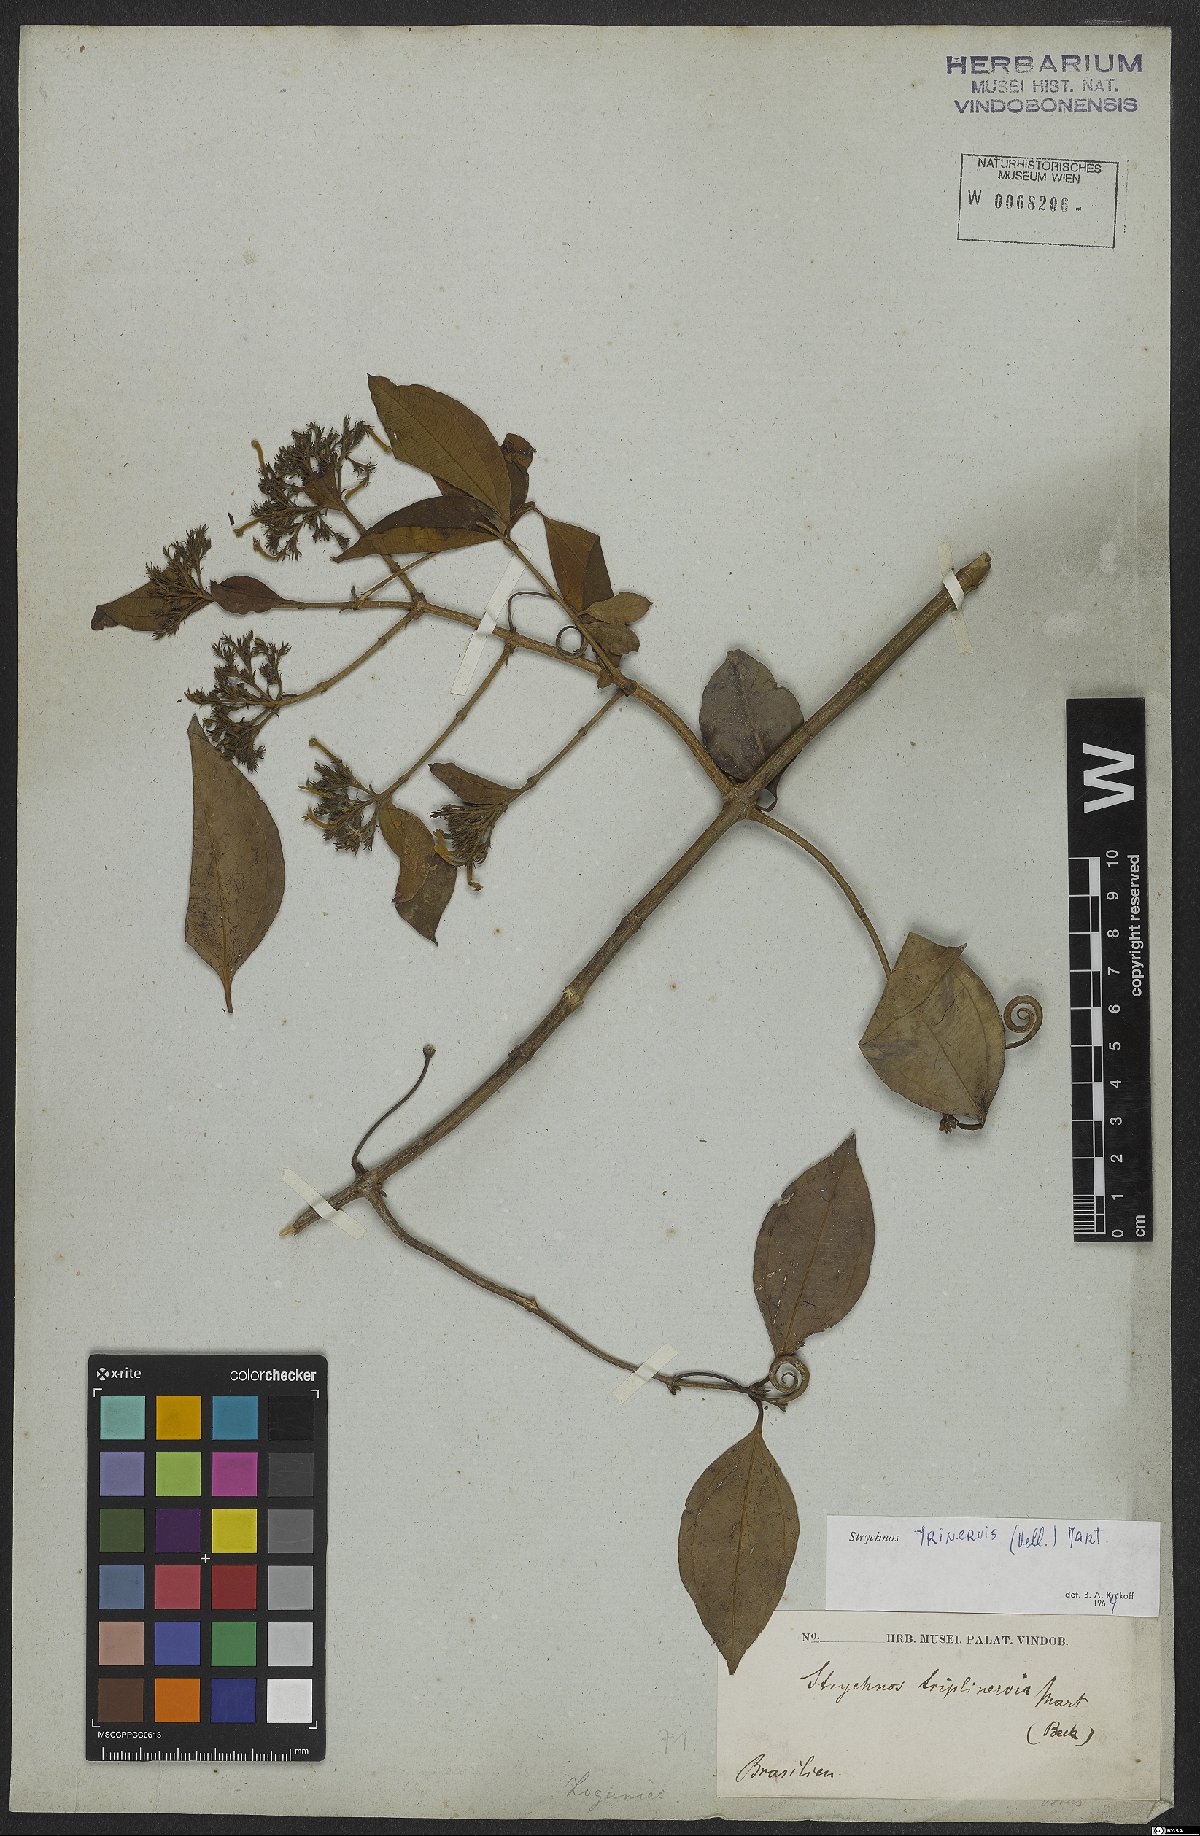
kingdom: Plantae
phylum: Tracheophyta
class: Magnoliopsida
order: Gentianales
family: Loganiaceae
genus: Strychnos
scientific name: Strychnos trinervis
